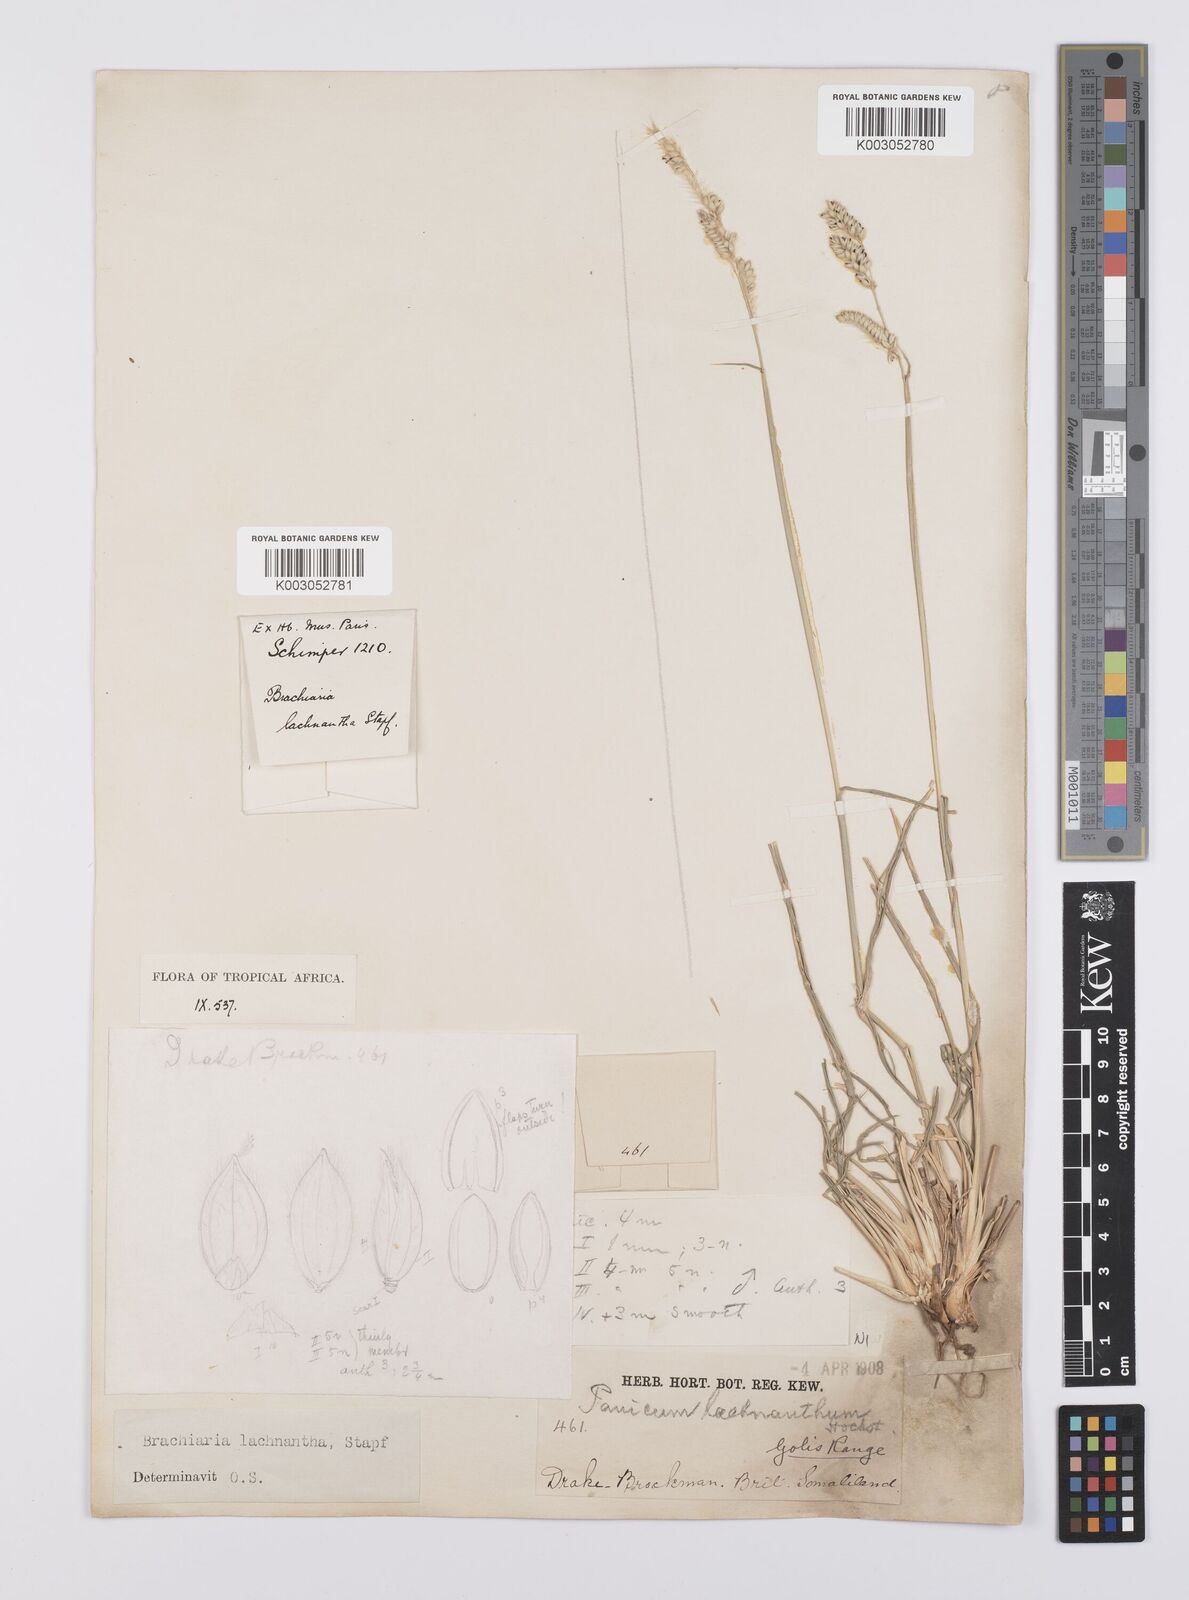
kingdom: Plantae
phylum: Tracheophyta
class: Liliopsida
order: Poales
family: Poaceae
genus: Urochloa
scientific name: Urochloa lachnantha
